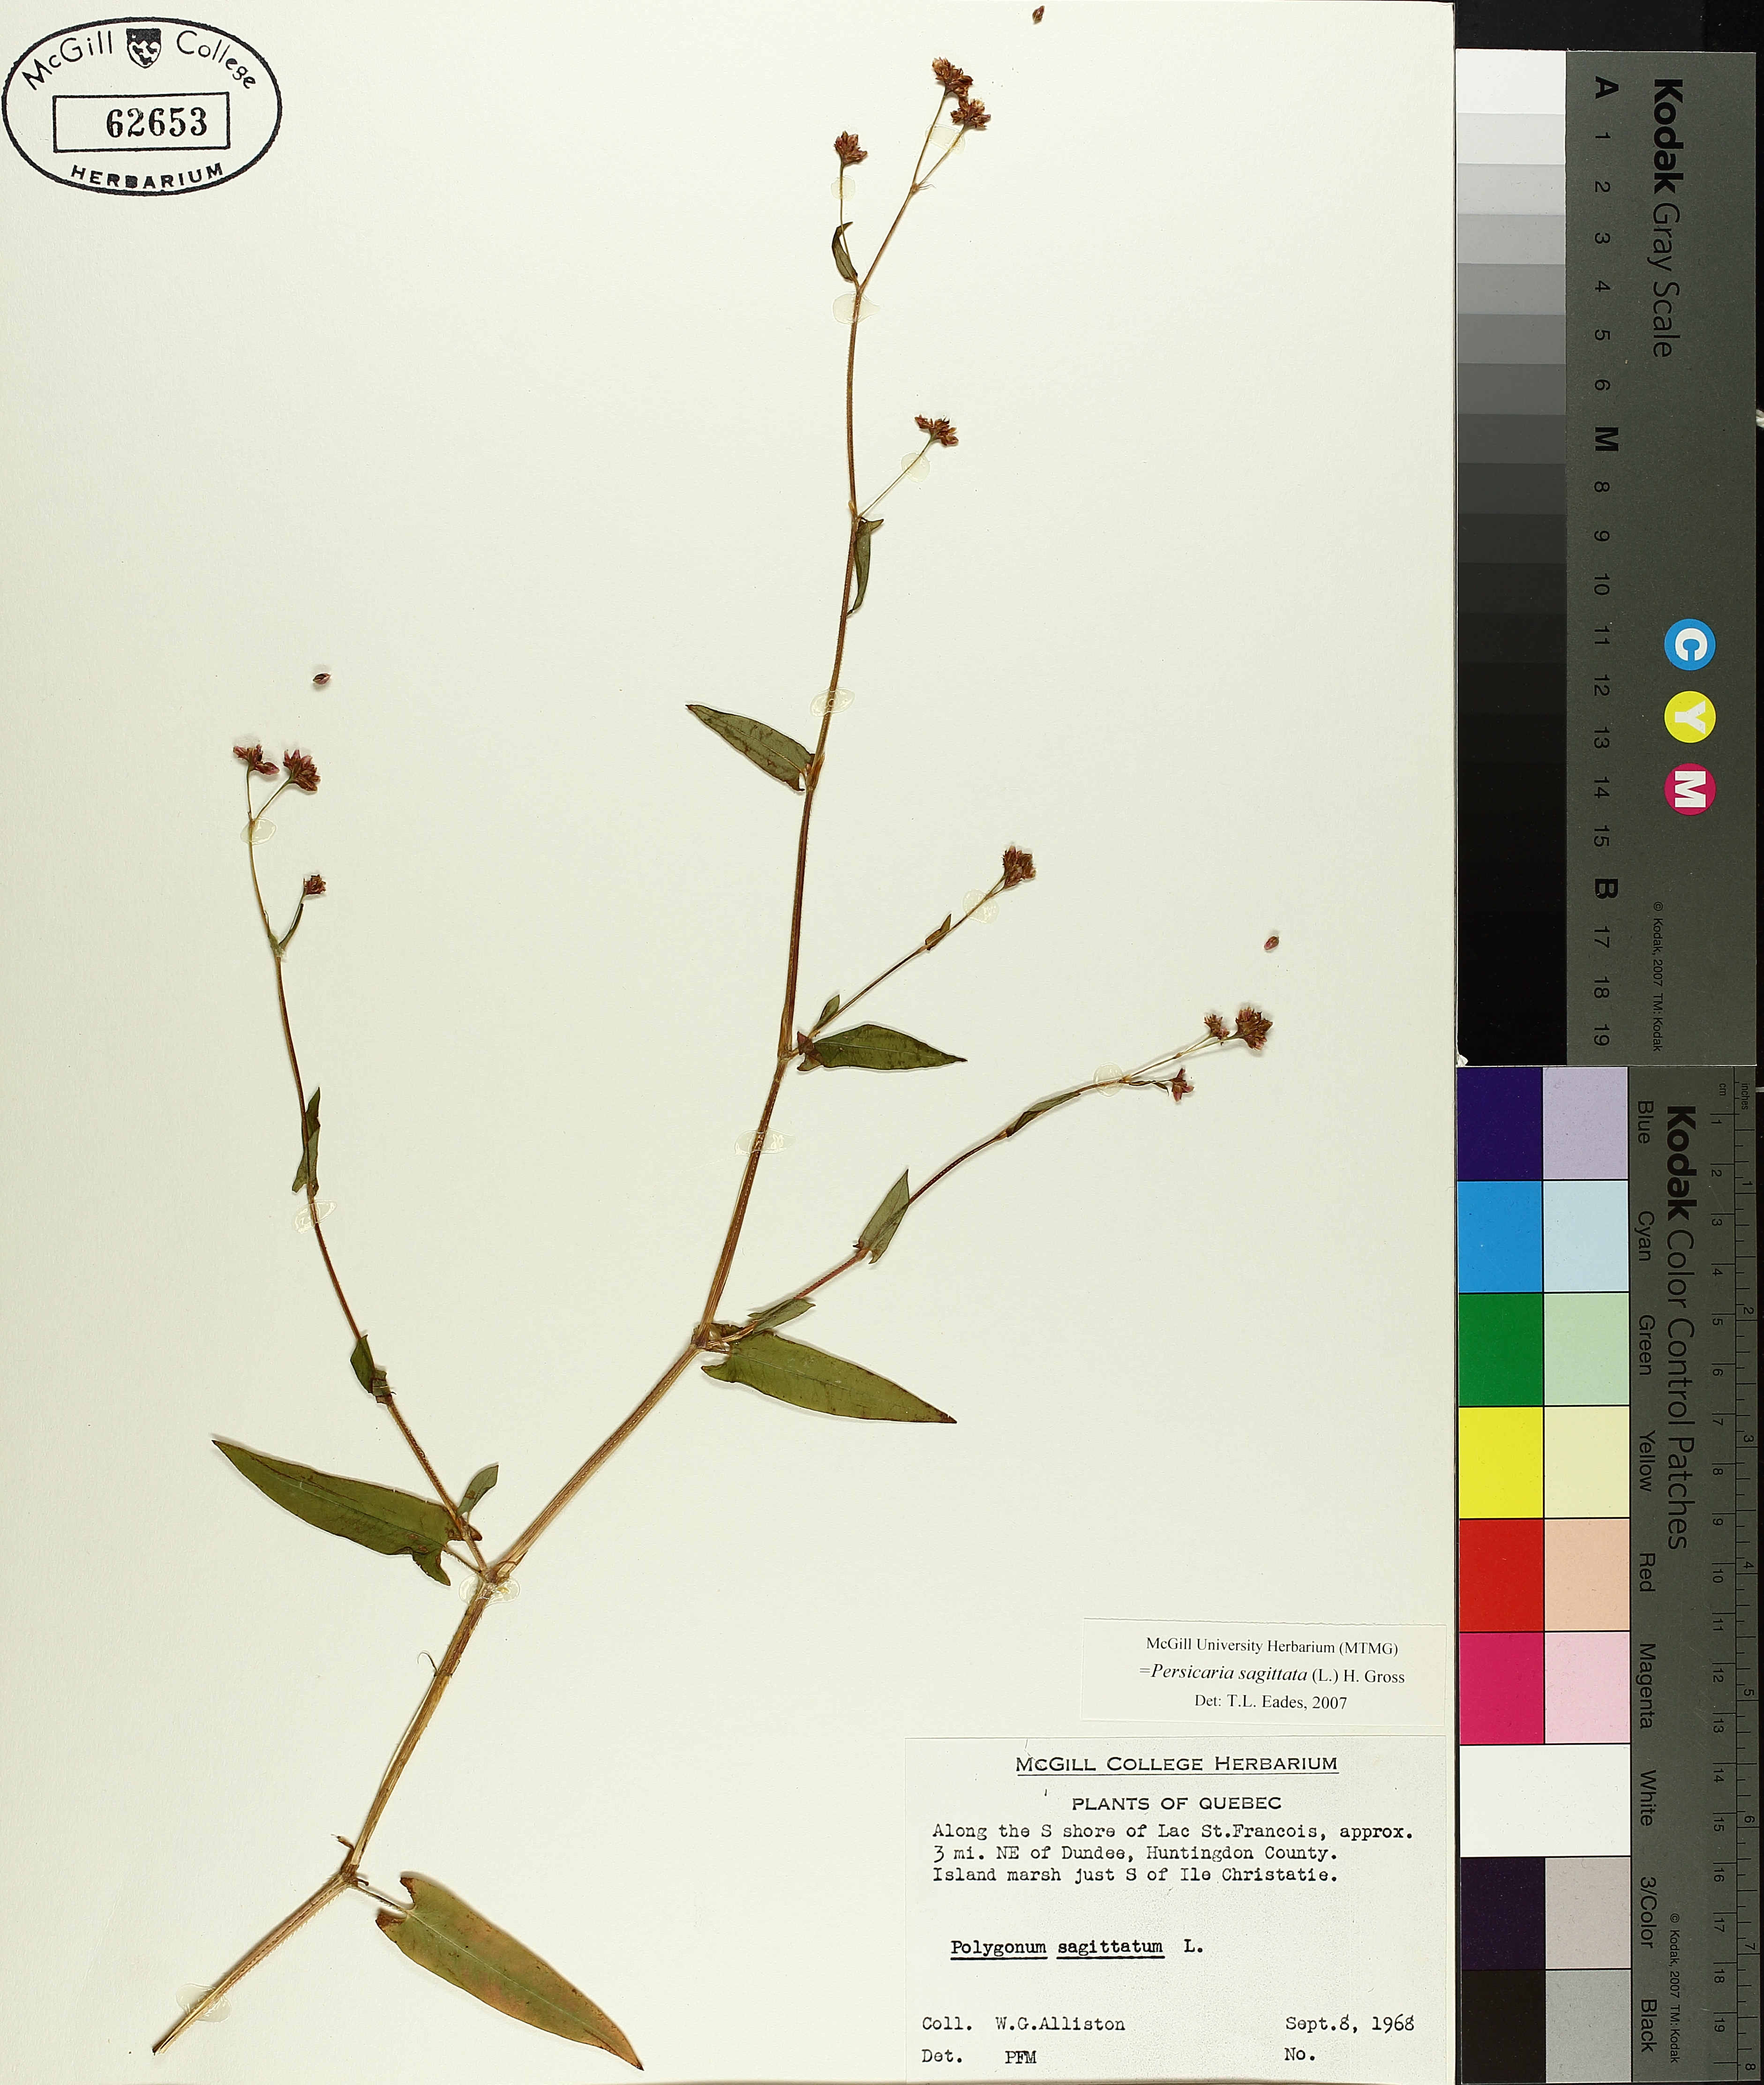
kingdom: Plantae
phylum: Tracheophyta
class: Magnoliopsida
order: Caryophyllales
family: Polygonaceae
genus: Persicaria
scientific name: Persicaria sagittata
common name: American tearthumb
